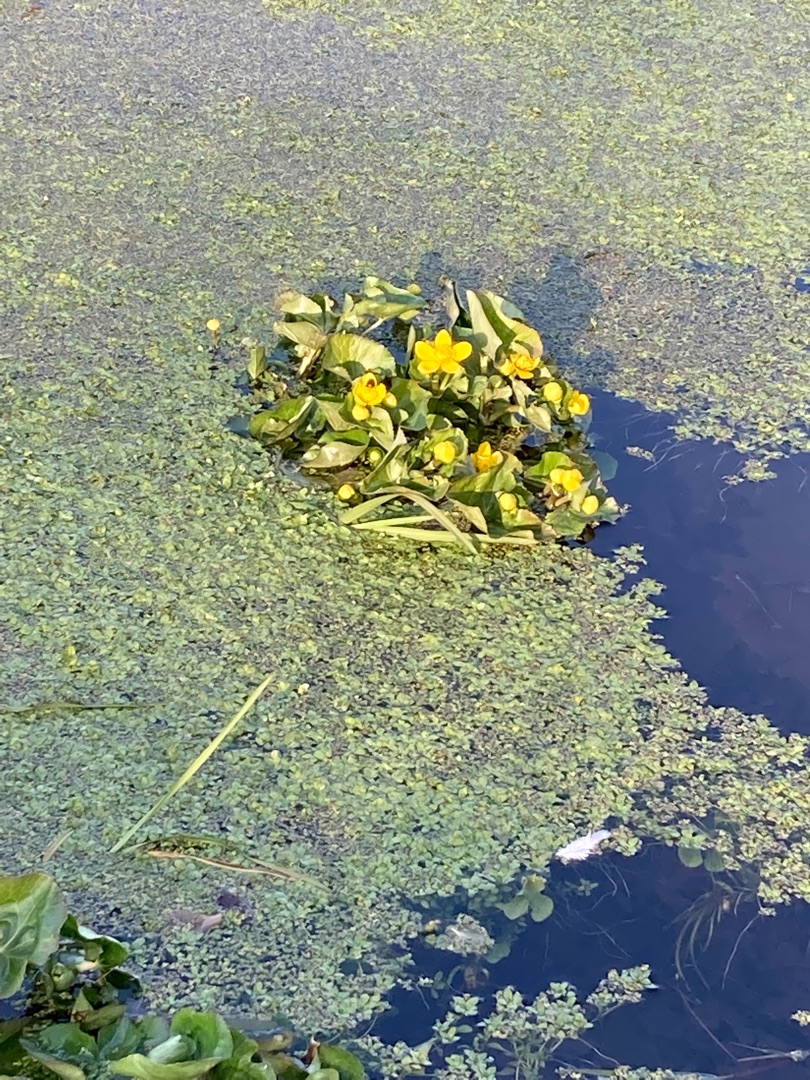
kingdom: Plantae
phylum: Tracheophyta
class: Magnoliopsida
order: Ranunculales
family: Ranunculaceae
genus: Caltha
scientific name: Caltha palustris
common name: Eng-kabbeleje
